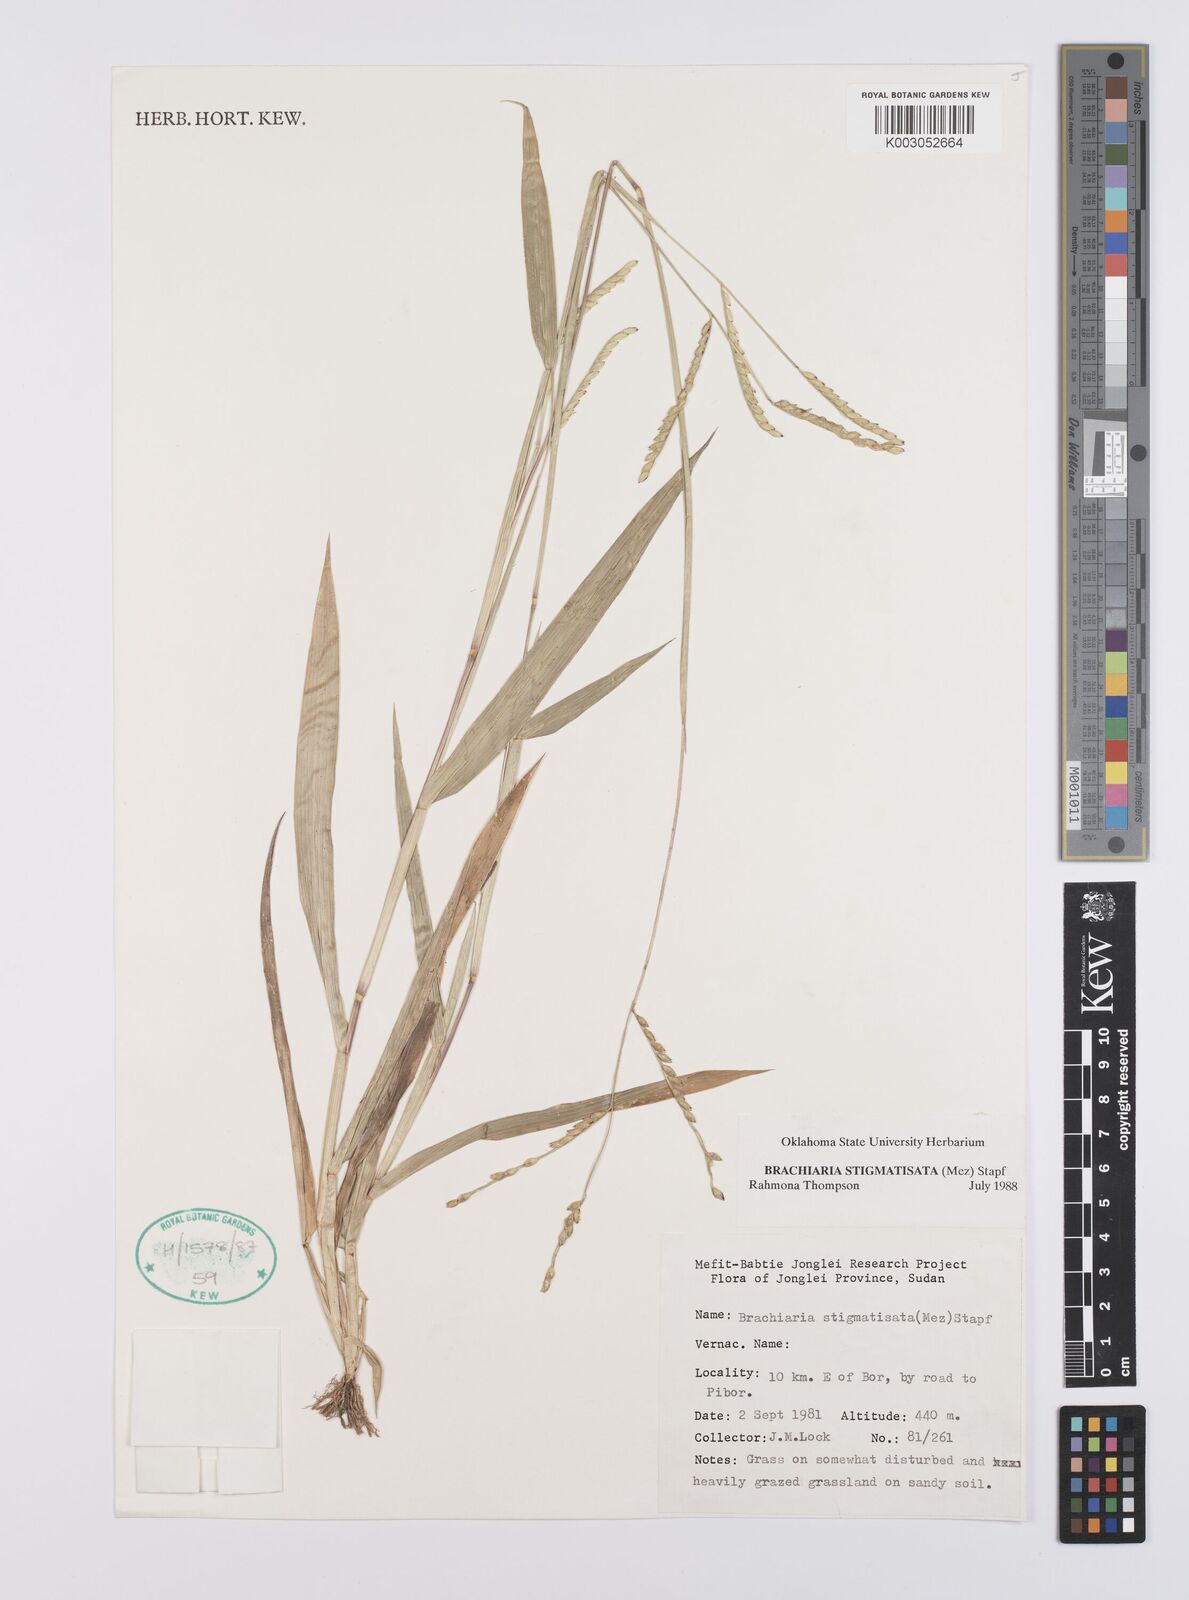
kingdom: Plantae
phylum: Tracheophyta
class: Liliopsida
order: Poales
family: Poaceae
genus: Urochloa
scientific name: Urochloa stigmatisata
